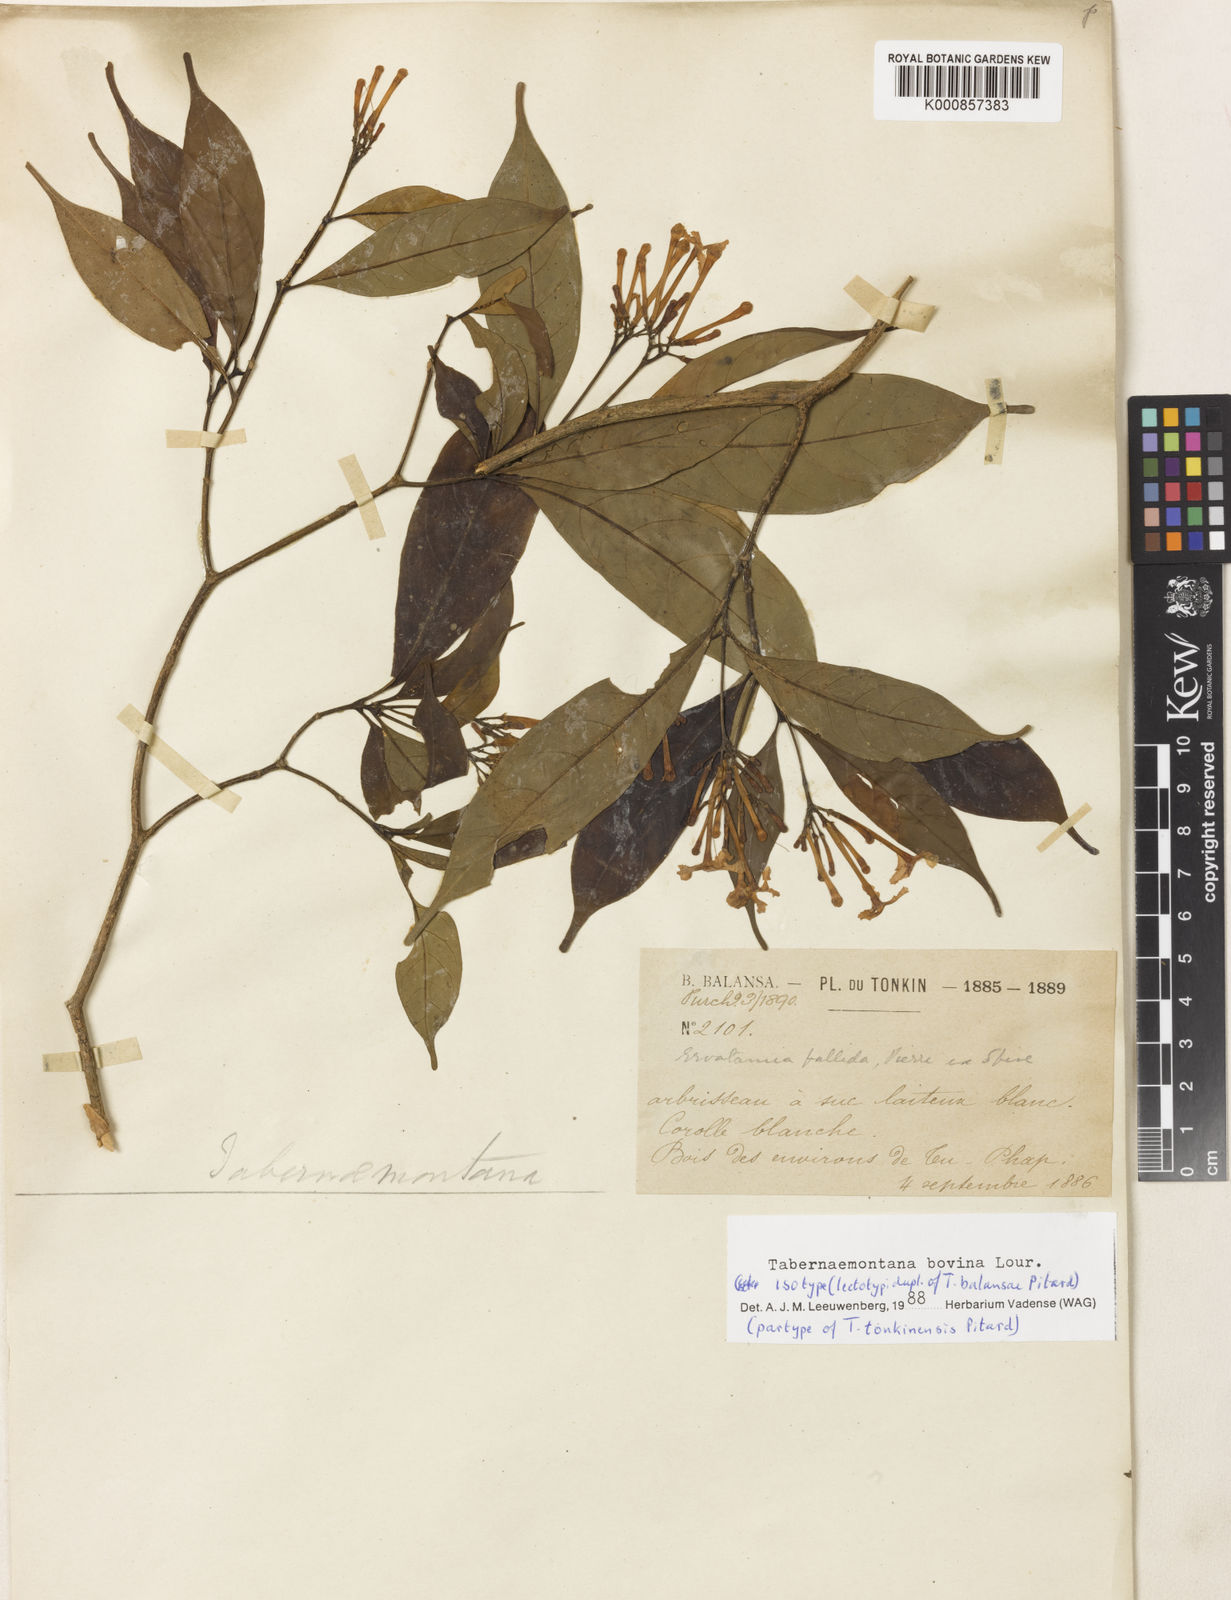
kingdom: Plantae
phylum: Tracheophyta
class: Magnoliopsida
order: Gentianales
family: Apocynaceae
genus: Tabernaemontana
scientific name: Tabernaemontana bovina
